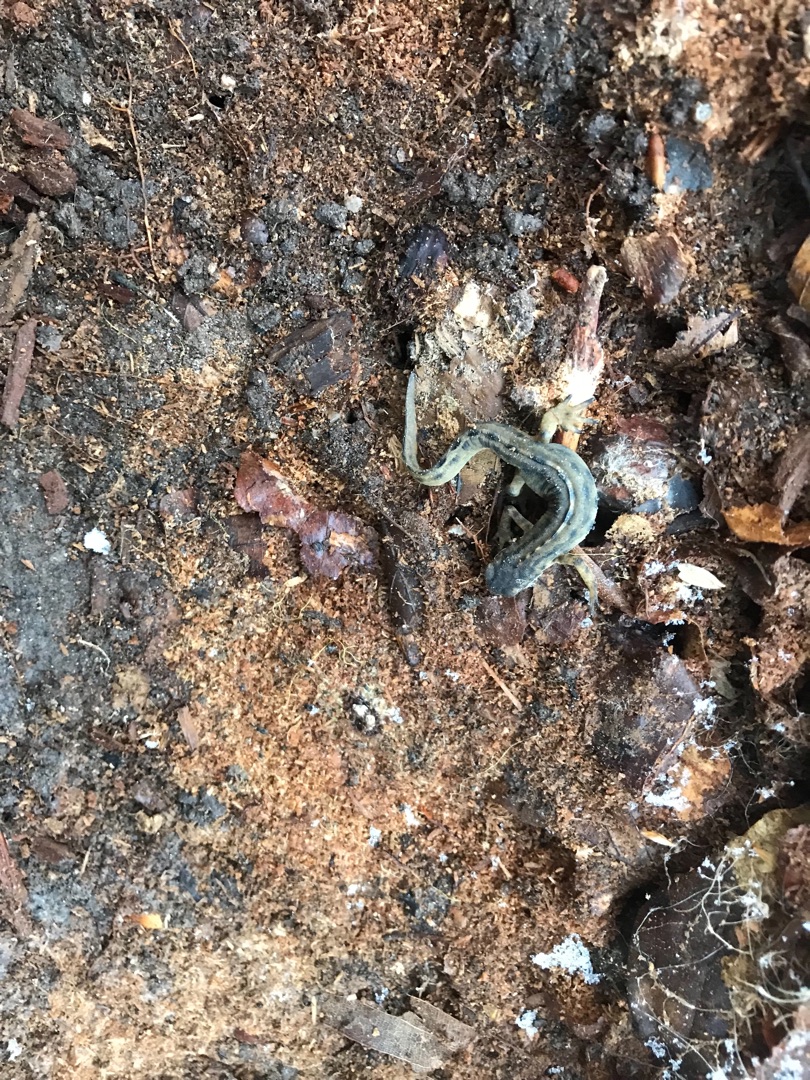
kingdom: Animalia
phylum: Chordata
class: Amphibia
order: Caudata
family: Salamandridae
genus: Lissotriton
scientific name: Lissotriton vulgaris
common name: Lille vandsalamander
